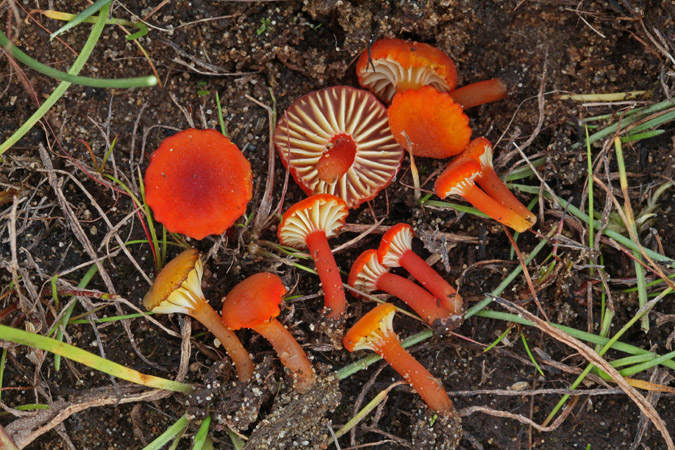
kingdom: Fungi
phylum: Basidiomycota
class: Agaricomycetes
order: Agaricales
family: Hygrophoraceae
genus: Hygrocybe
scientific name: Hygrocybe coccineocrenata
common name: tørvemos-vokshat
